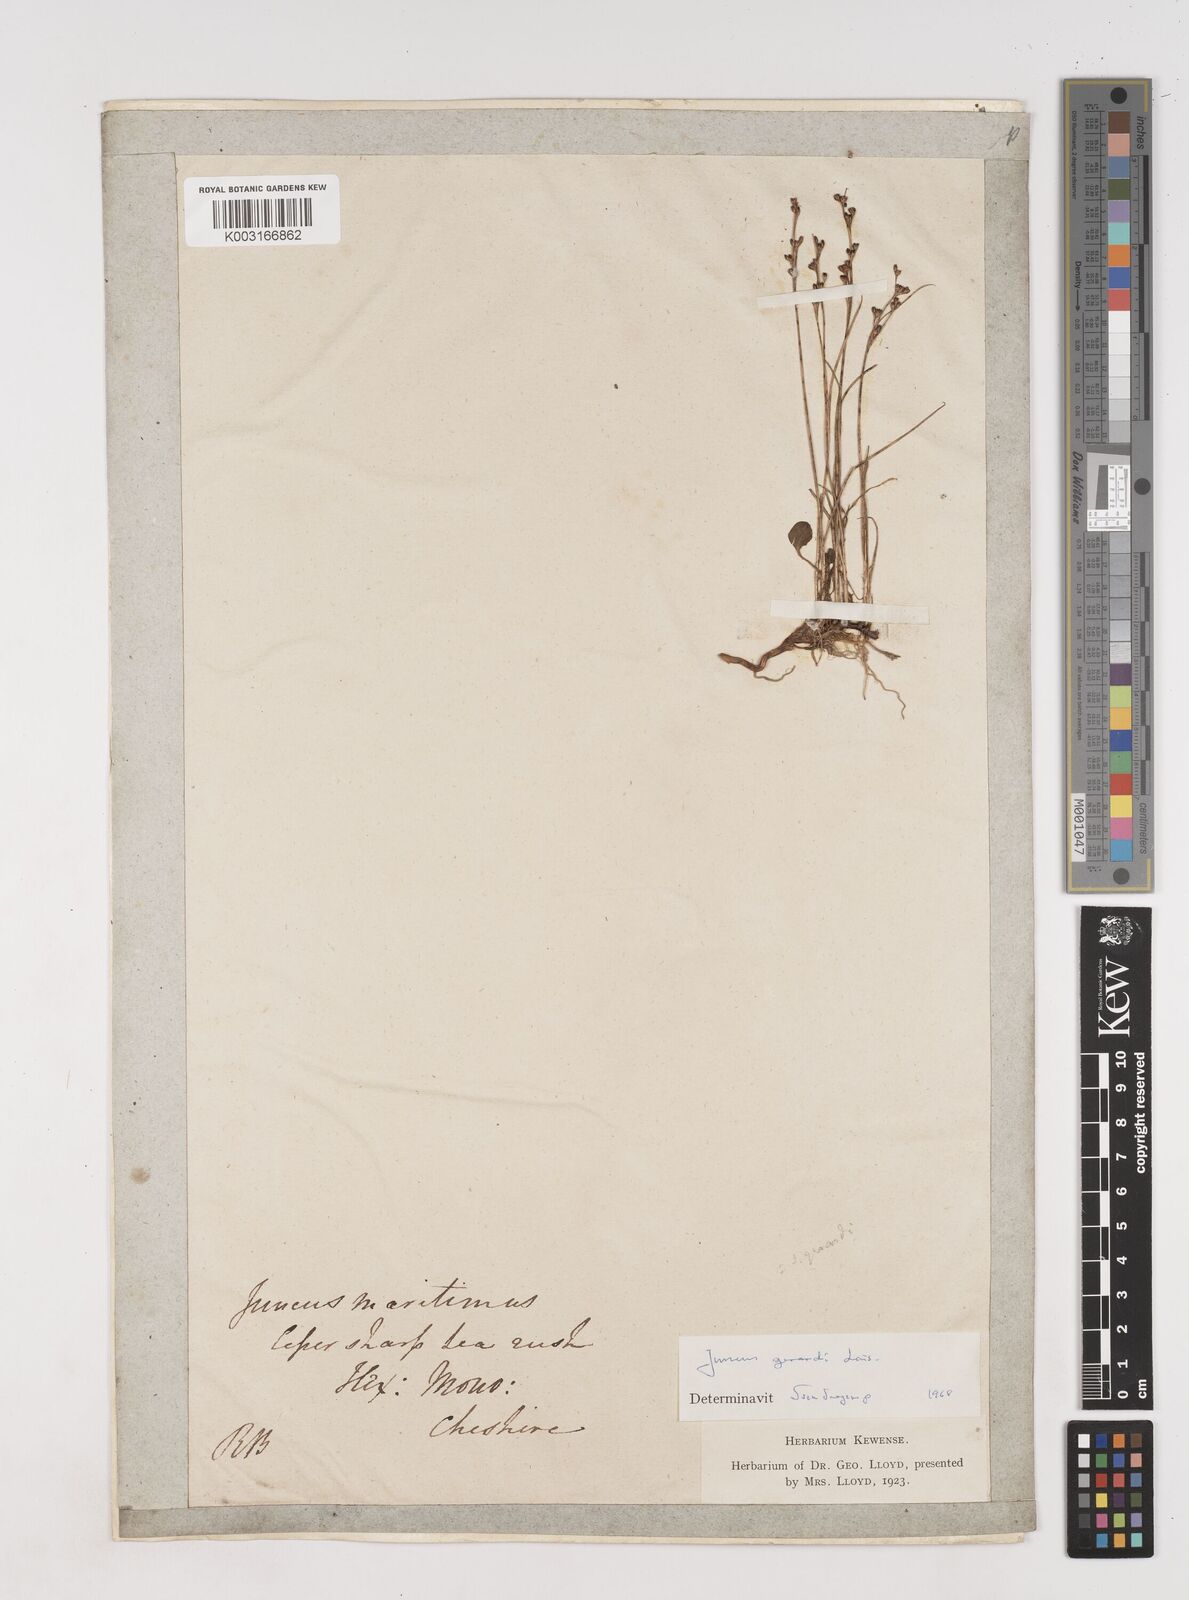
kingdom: Plantae
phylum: Tracheophyta
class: Liliopsida
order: Poales
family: Juncaceae
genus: Juncus
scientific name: Juncus gerardi
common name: Saltmarsh rush
